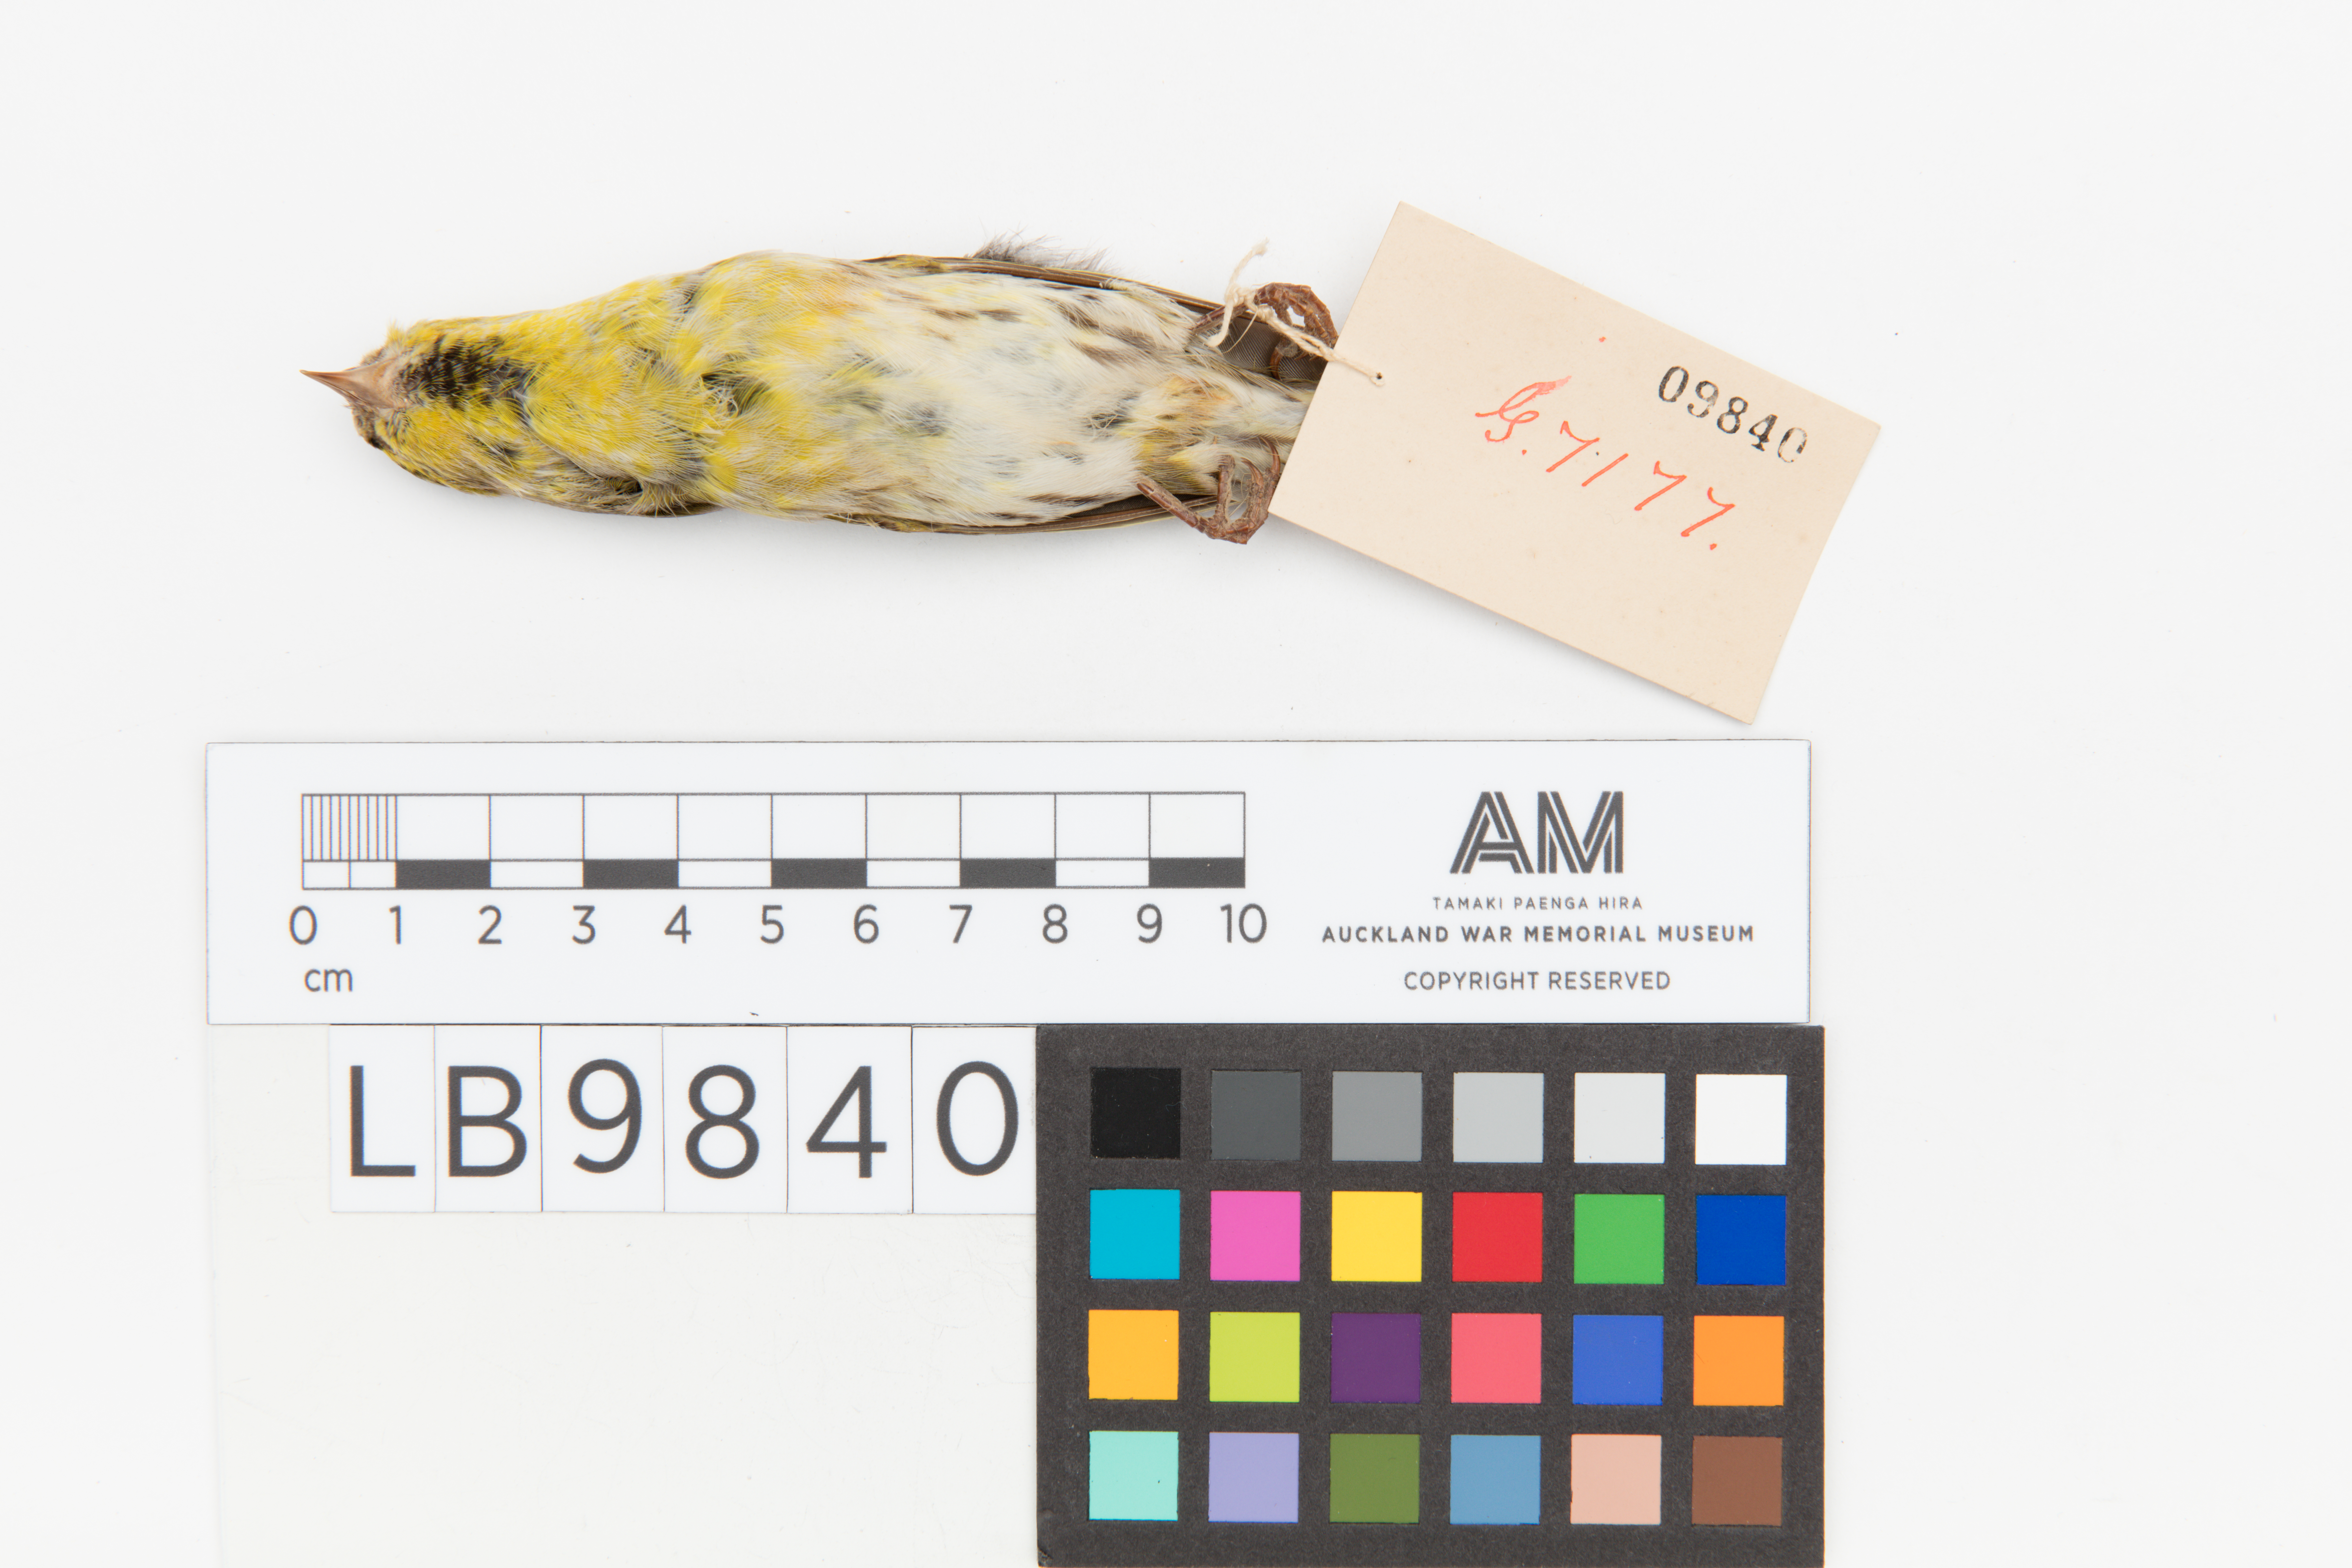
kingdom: Animalia
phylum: Chordata
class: Aves
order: Passeriformes
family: Fringillidae
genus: Spinus
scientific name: Spinus spinus
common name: Eurasian siskin
